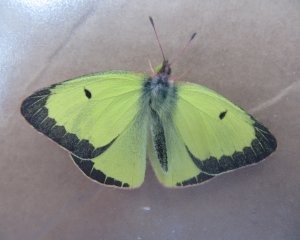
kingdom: Animalia
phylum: Arthropoda
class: Insecta
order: Lepidoptera
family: Pieridae
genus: Colias
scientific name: Colias philodice
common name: Clouded Sulphur
